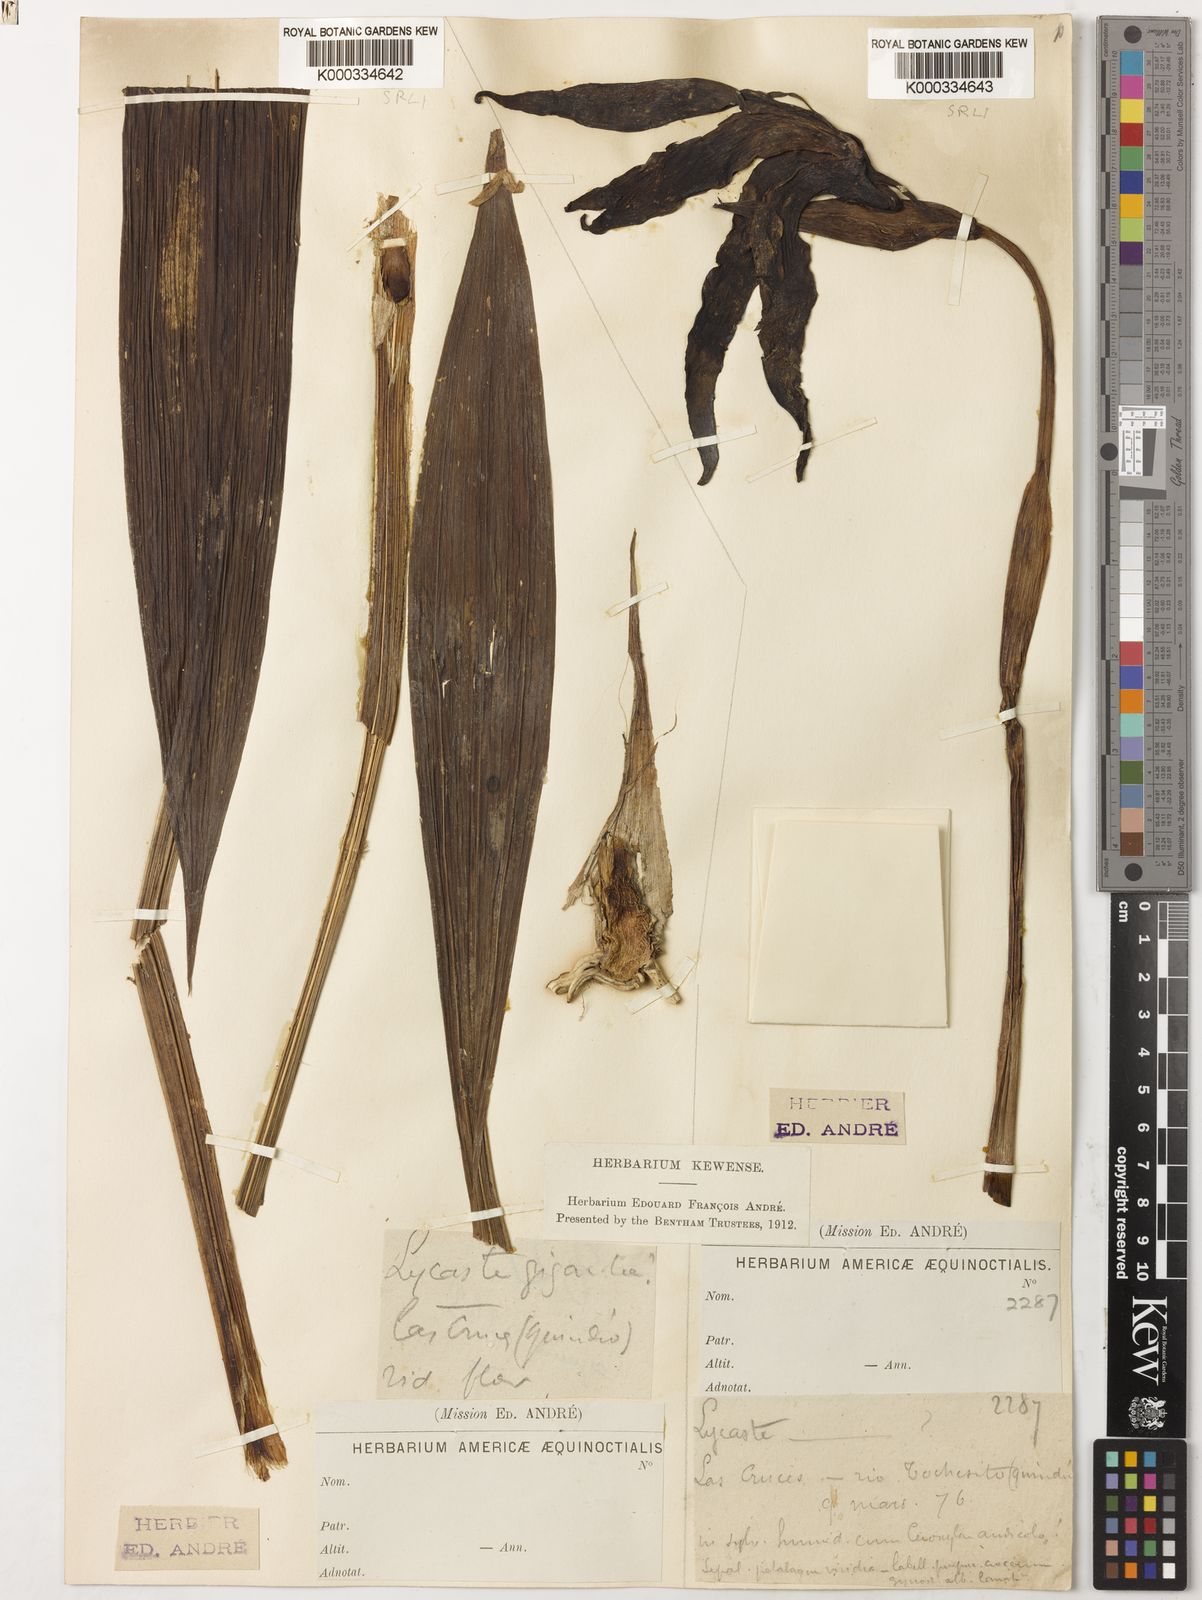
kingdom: Plantae
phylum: Tracheophyta
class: Liliopsida
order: Asparagales
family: Orchidaceae
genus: Ida
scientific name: Ida gigantea
